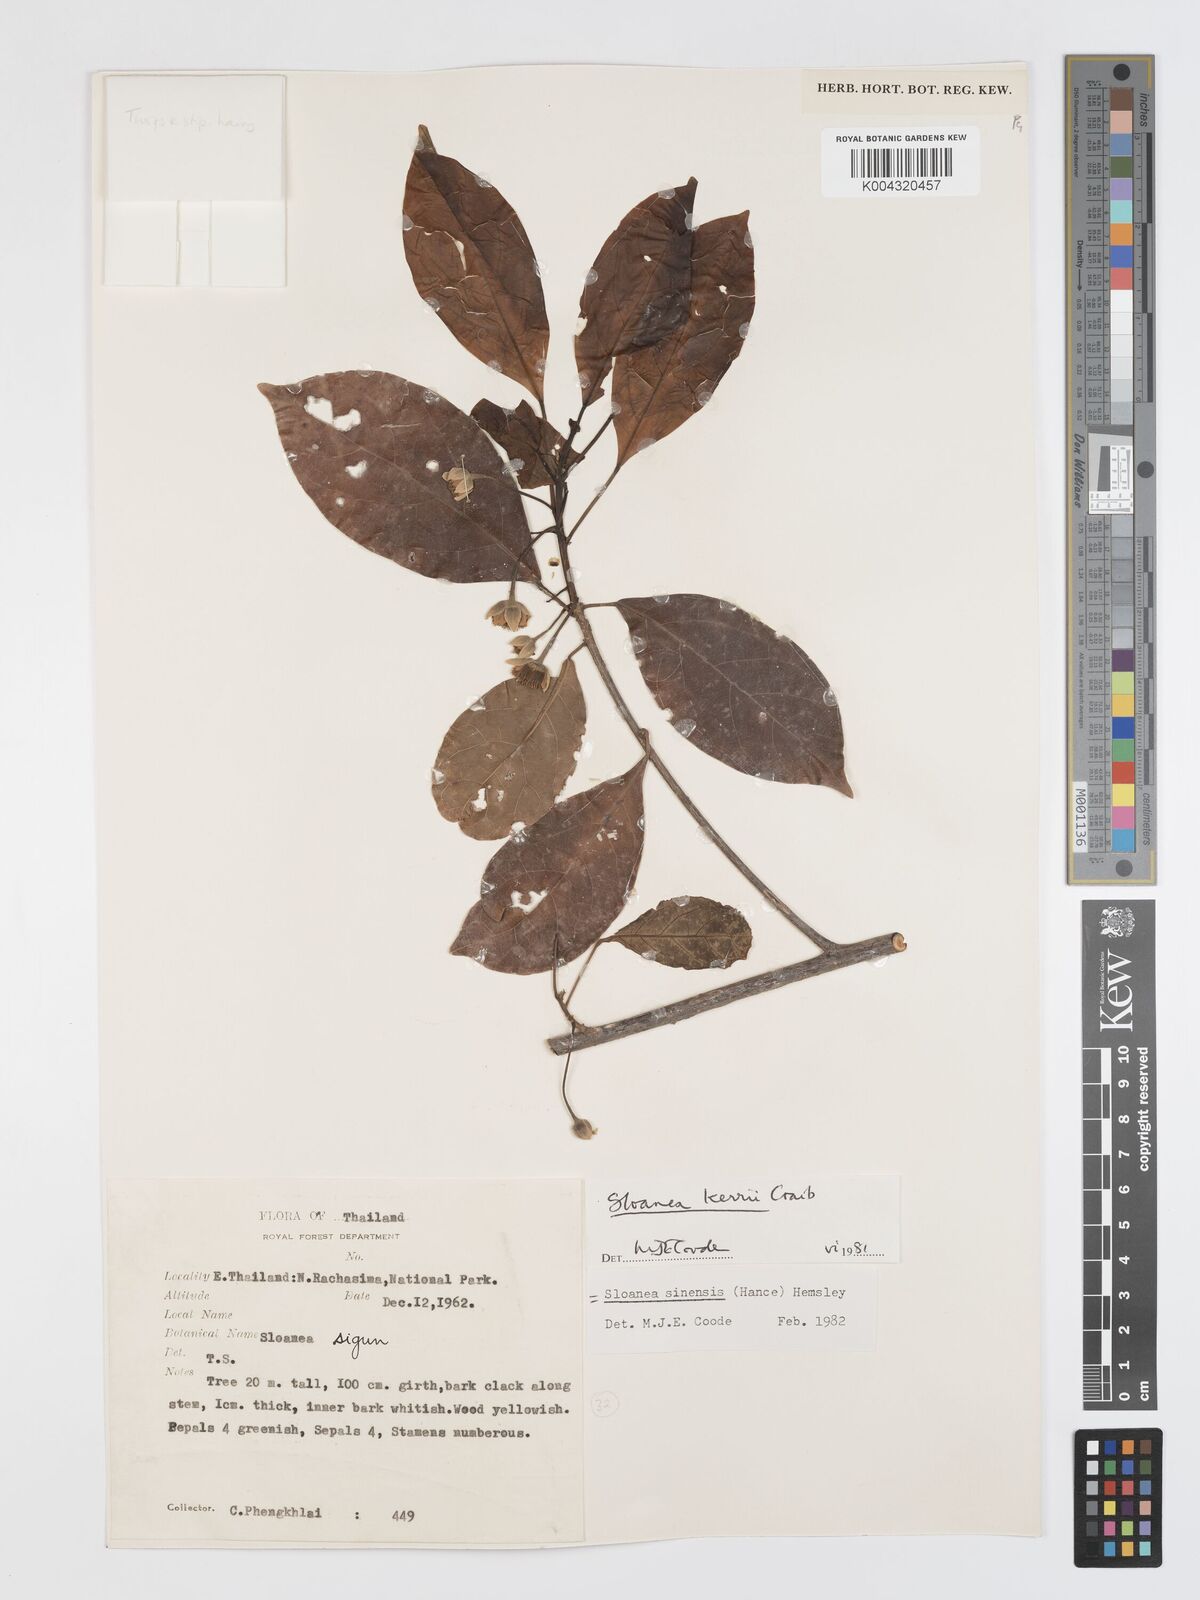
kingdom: Plantae
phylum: Tracheophyta
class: Magnoliopsida
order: Oxalidales
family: Elaeocarpaceae
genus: Sloanea
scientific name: Sloanea sinensis
